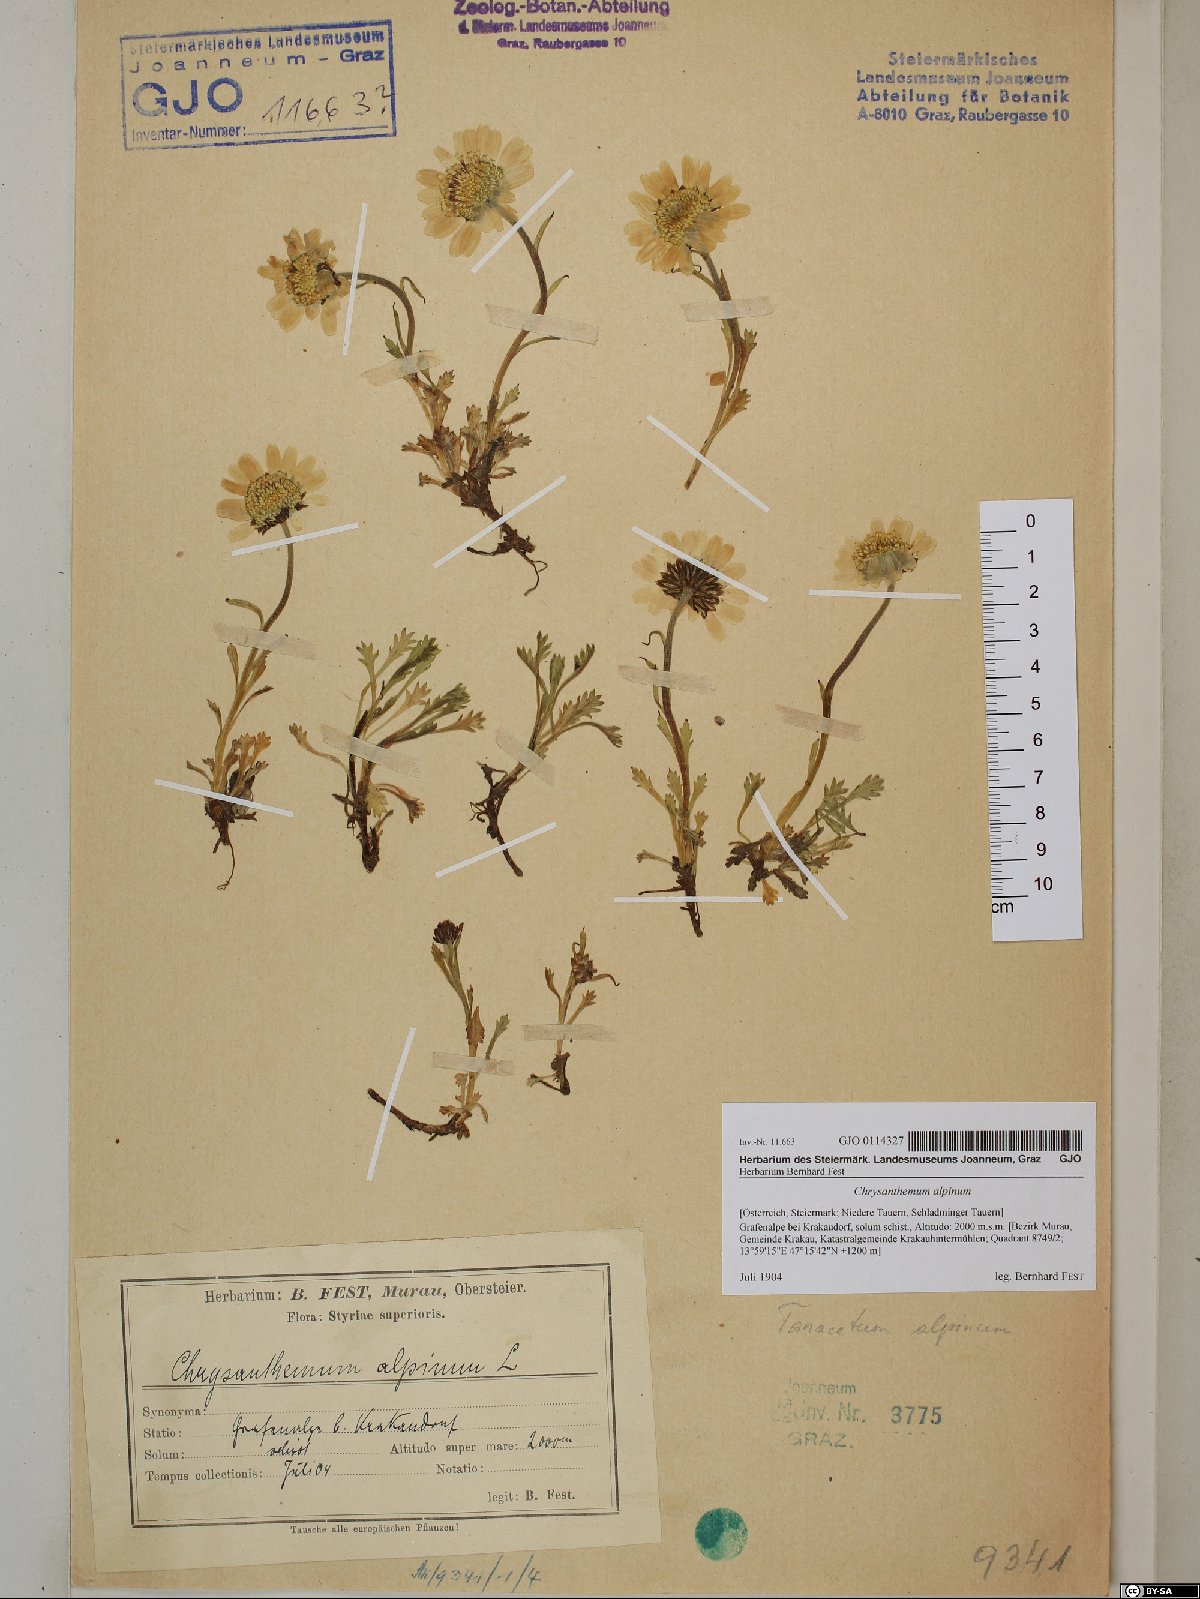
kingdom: Plantae
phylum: Tracheophyta
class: Magnoliopsida
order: Asterales
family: Asteraceae
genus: Leucanthemopsis
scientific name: Leucanthemopsis alpina
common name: Alpine moon daisy
